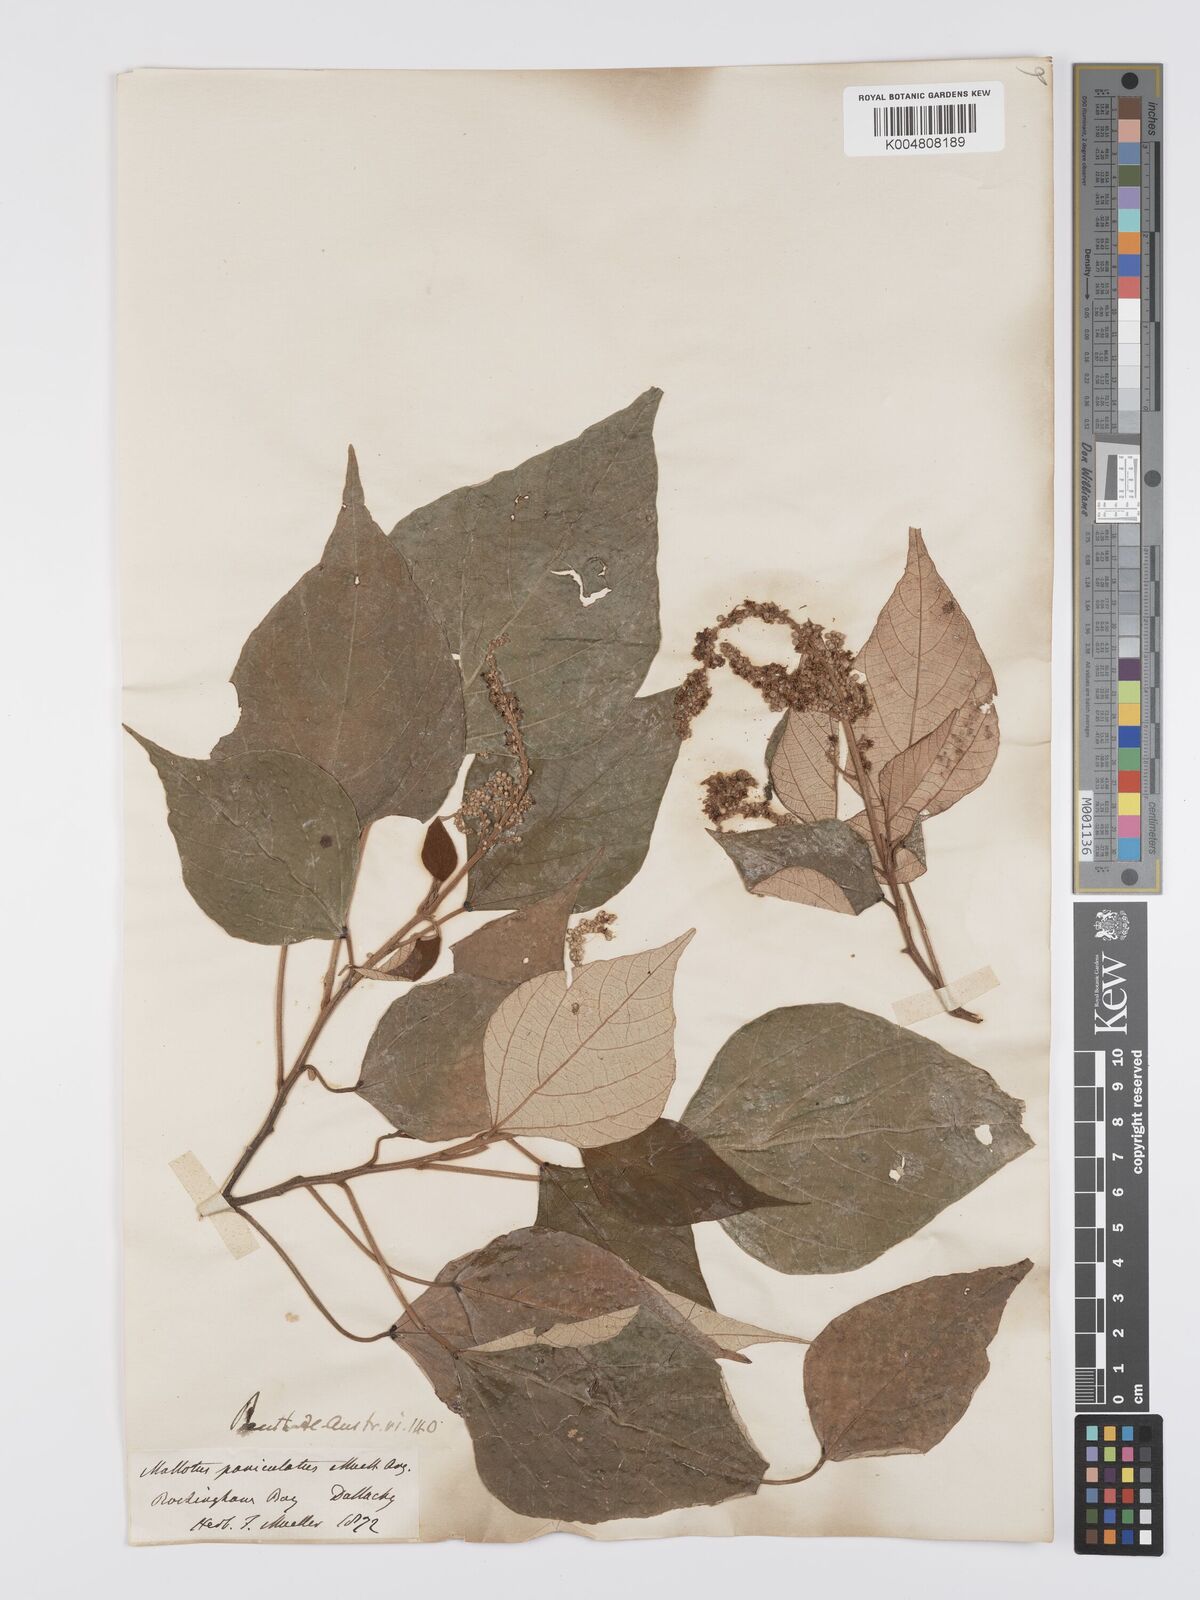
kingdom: Plantae
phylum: Tracheophyta
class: Magnoliopsida
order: Malpighiales
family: Euphorbiaceae
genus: Mallotus
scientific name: Mallotus paniculatus
